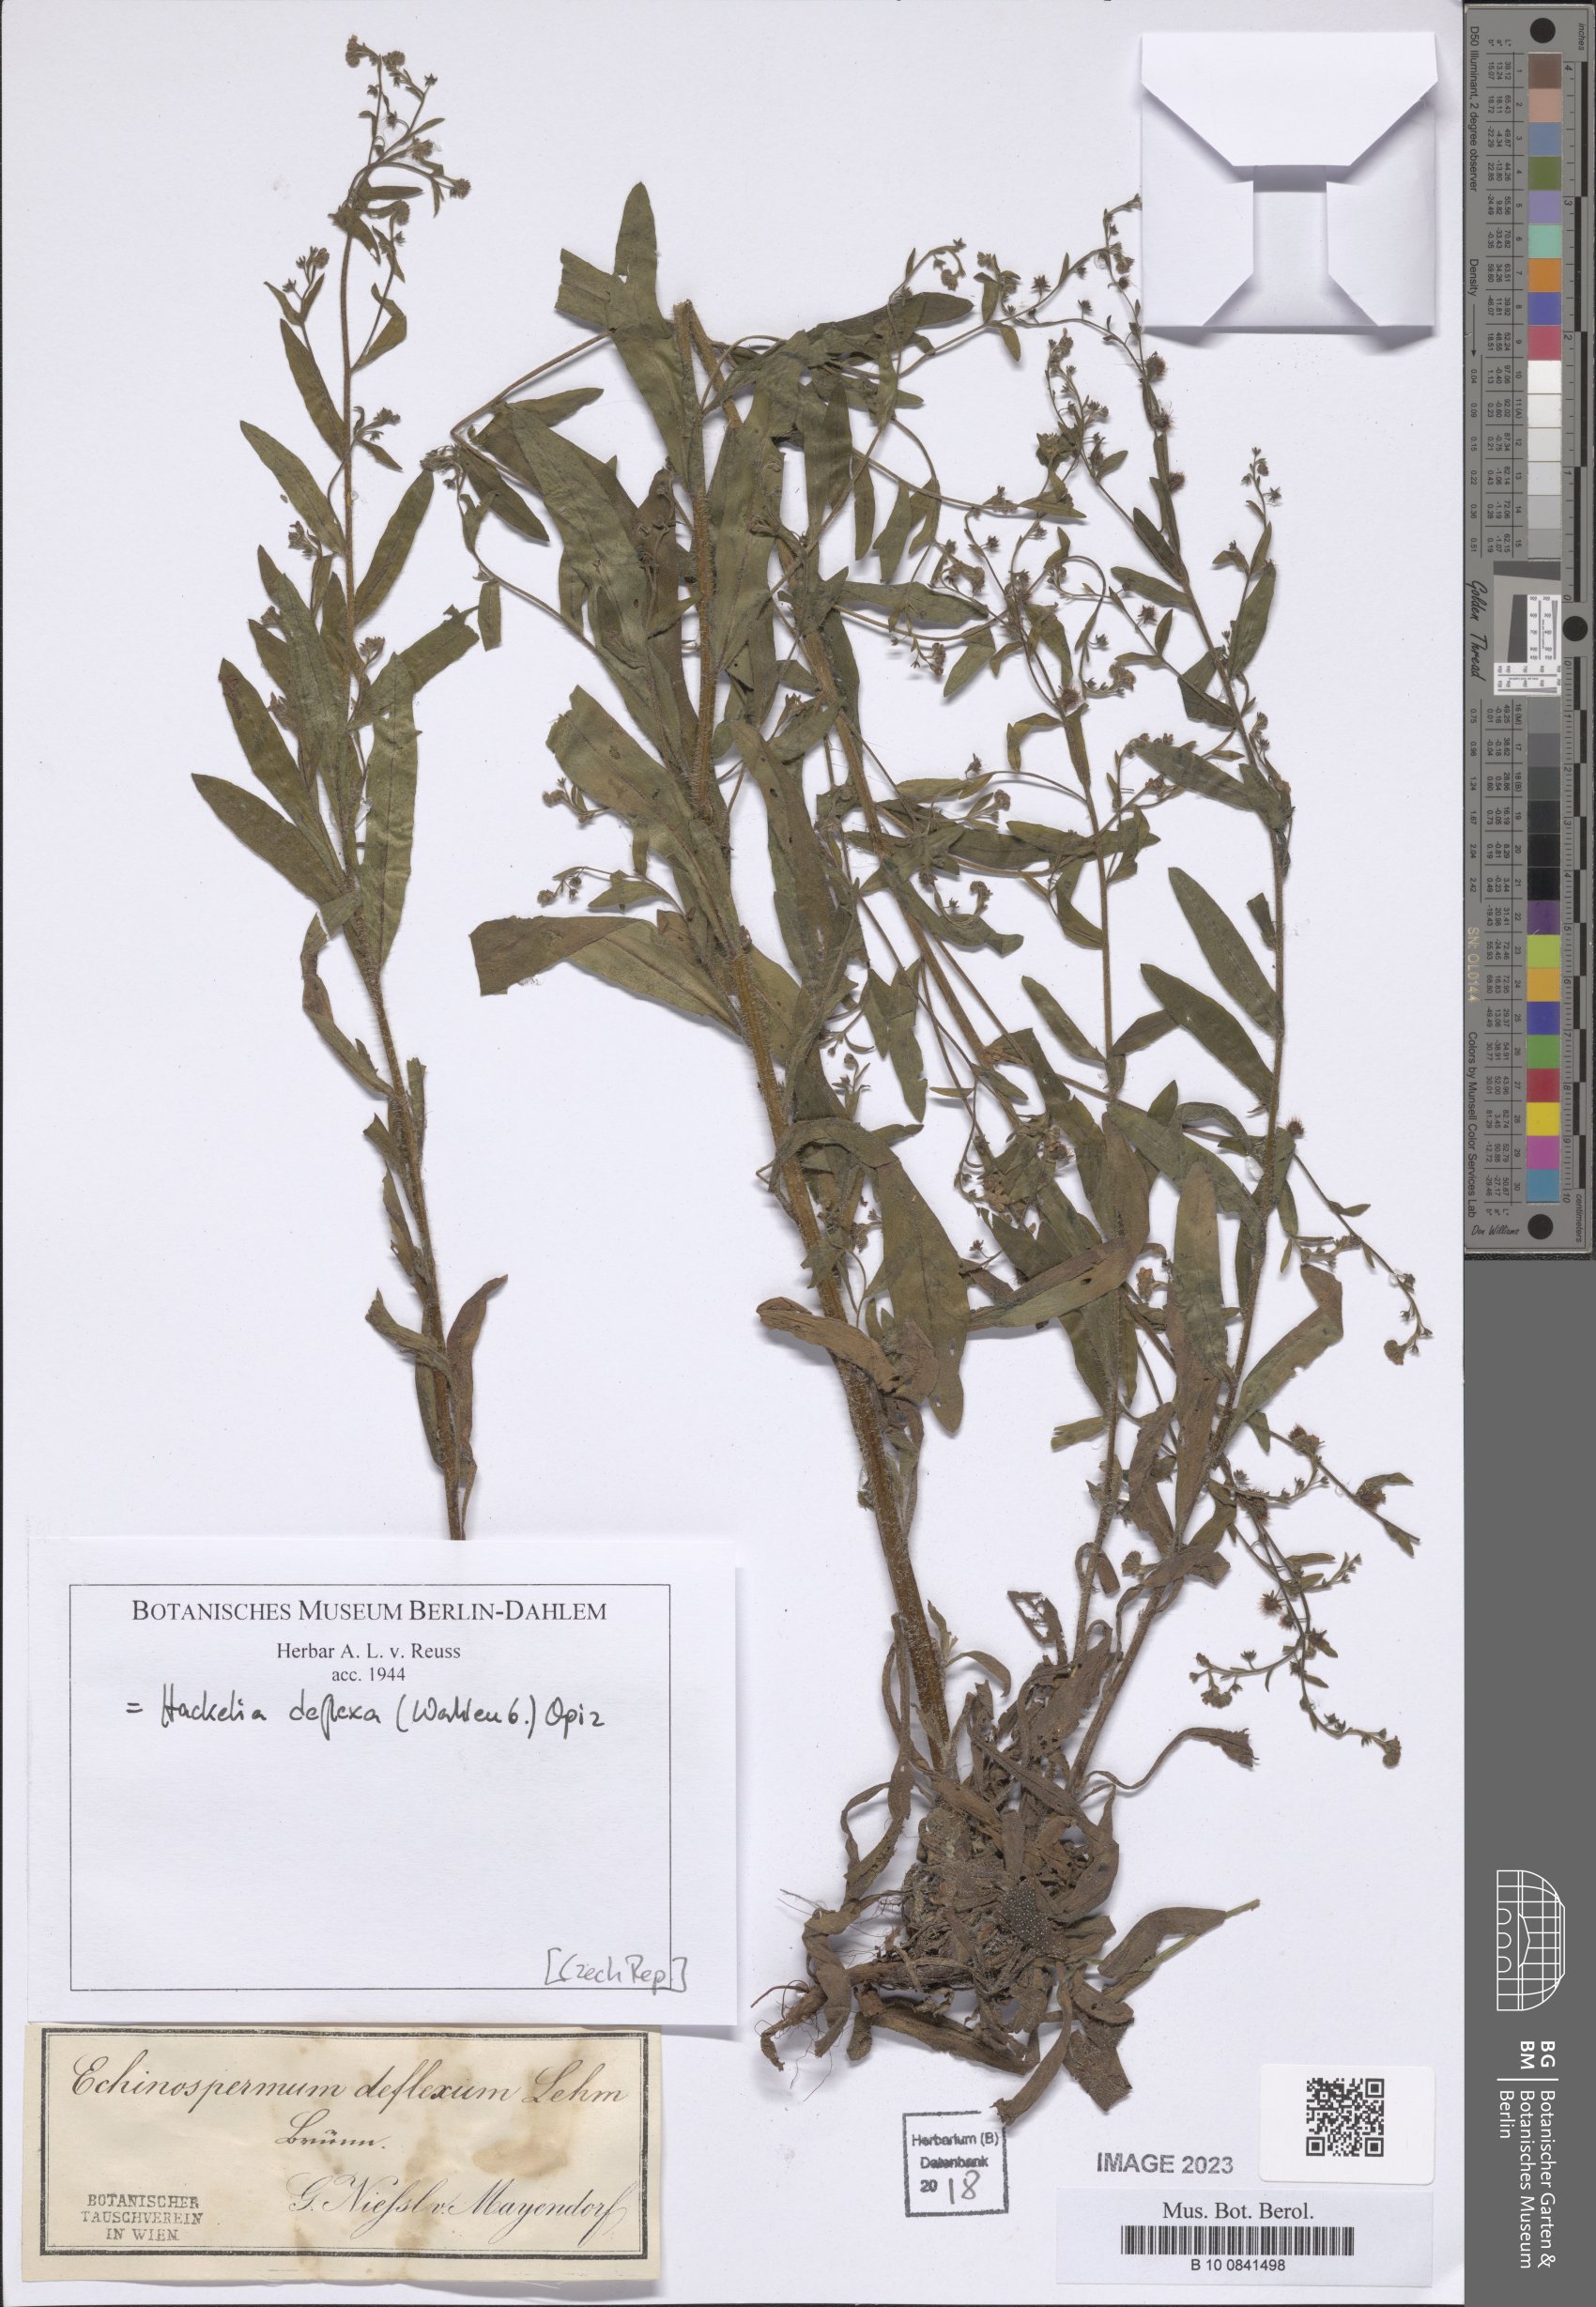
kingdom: Plantae
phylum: Tracheophyta
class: Magnoliopsida
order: Boraginales
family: Boraginaceae
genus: Hackelia
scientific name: Hackelia deflexa
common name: Nodding stickseed
